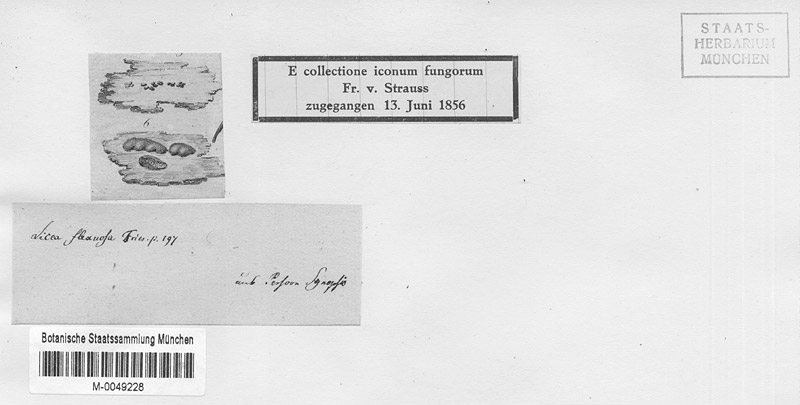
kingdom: Protozoa
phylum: Mycetozoa
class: Myxomycetes
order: Cribrariales
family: Liceaceae
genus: Licea
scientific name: Licea variabilis
